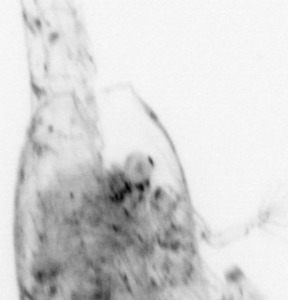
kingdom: Animalia
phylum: Arthropoda
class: Malacostraca
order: Decapoda
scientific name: Decapoda
